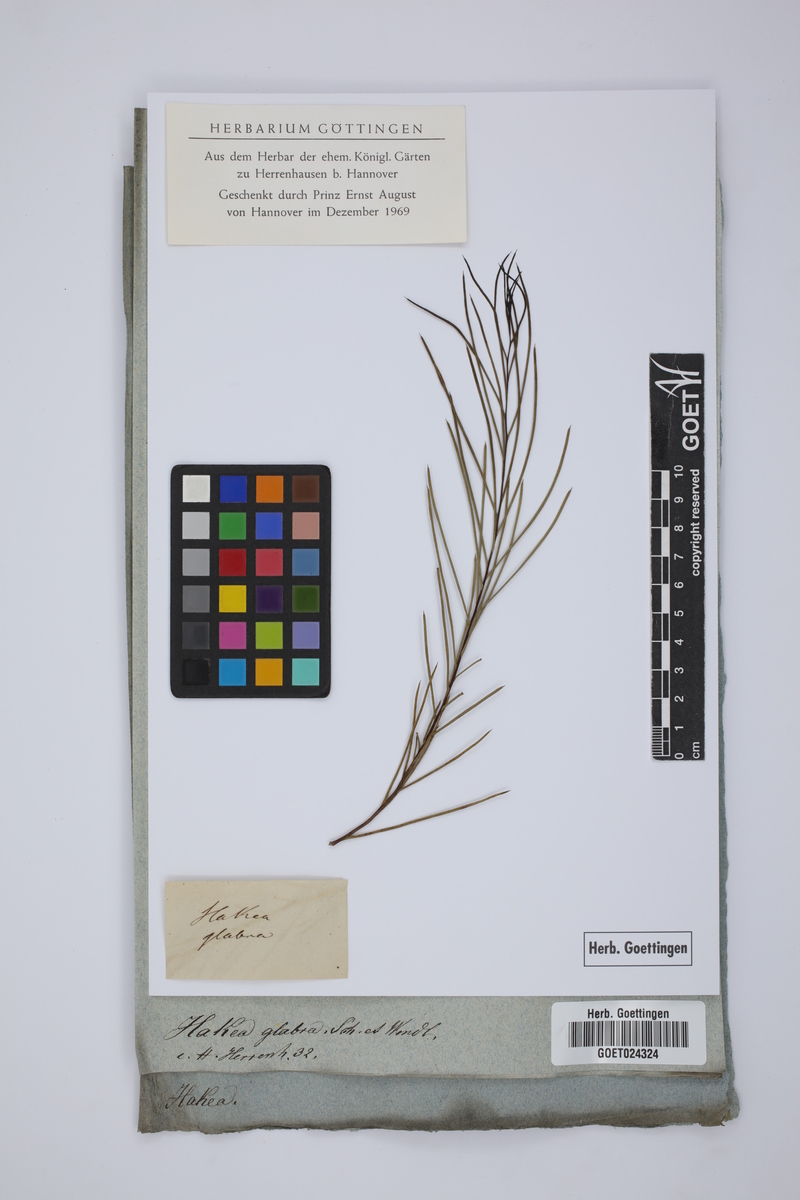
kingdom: Plantae
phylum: Tracheophyta
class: Magnoliopsida
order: Proteales
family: Proteaceae
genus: Hakea
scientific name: Hakea teretifolia
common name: Dagger hakea
